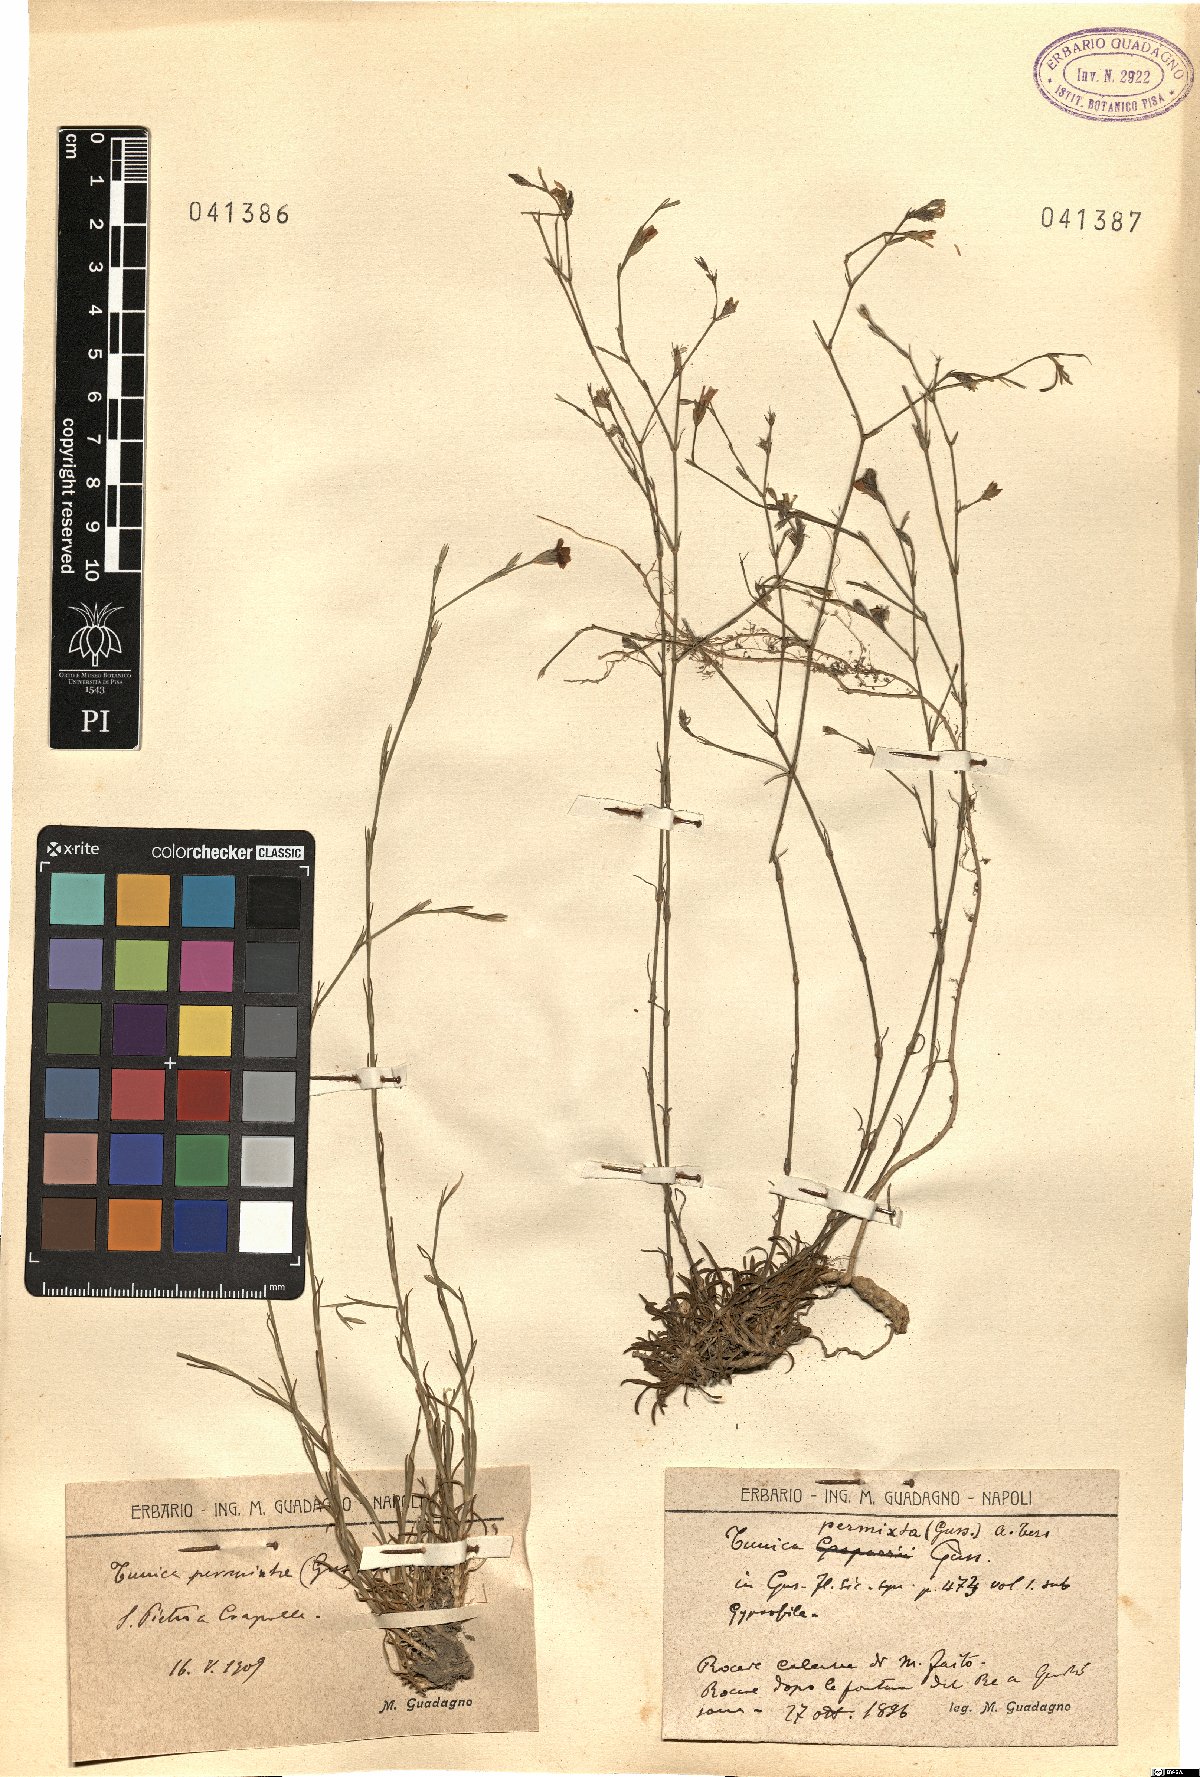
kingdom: Plantae
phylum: Tracheophyta
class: Magnoliopsida
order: Caryophyllales
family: Caryophyllaceae
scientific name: Caryophyllaceae
